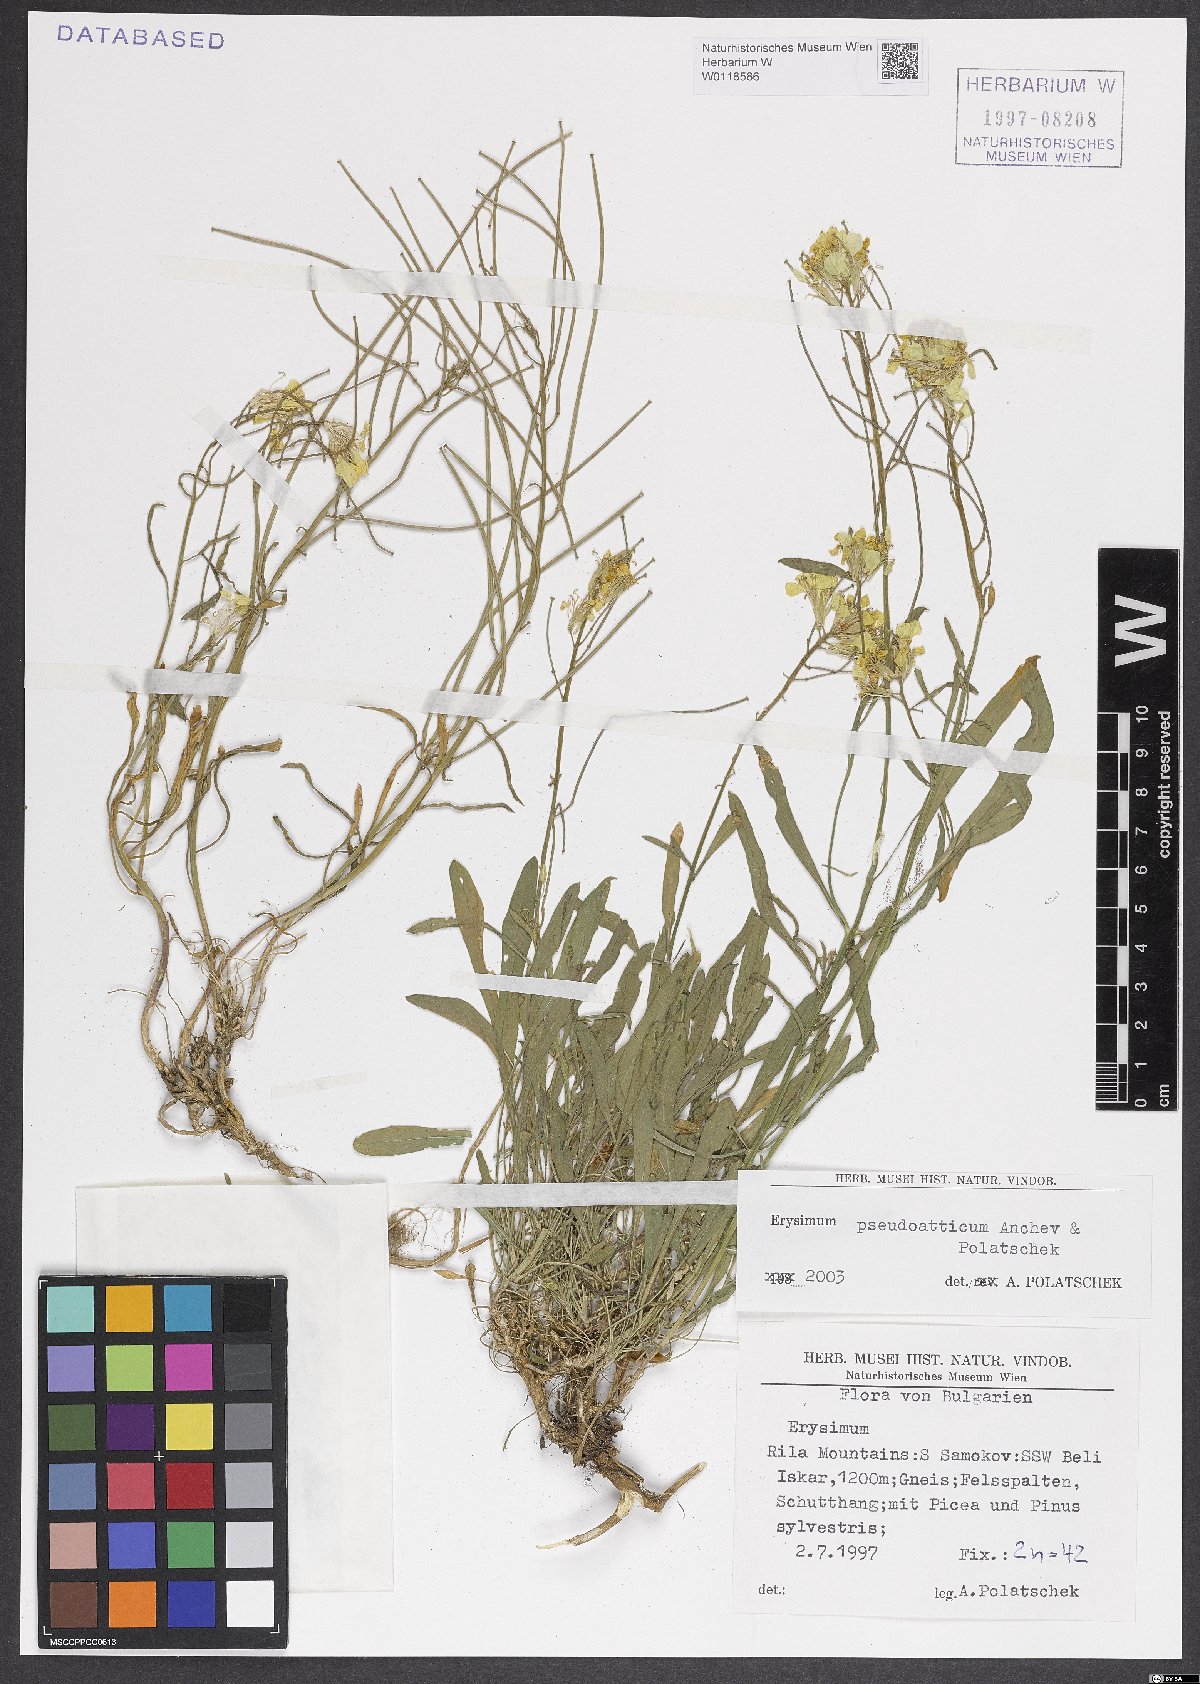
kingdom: Plantae
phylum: Tracheophyta
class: Magnoliopsida
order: Brassicales
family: Brassicaceae
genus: Erysimum
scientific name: Erysimum pseudoatticum
